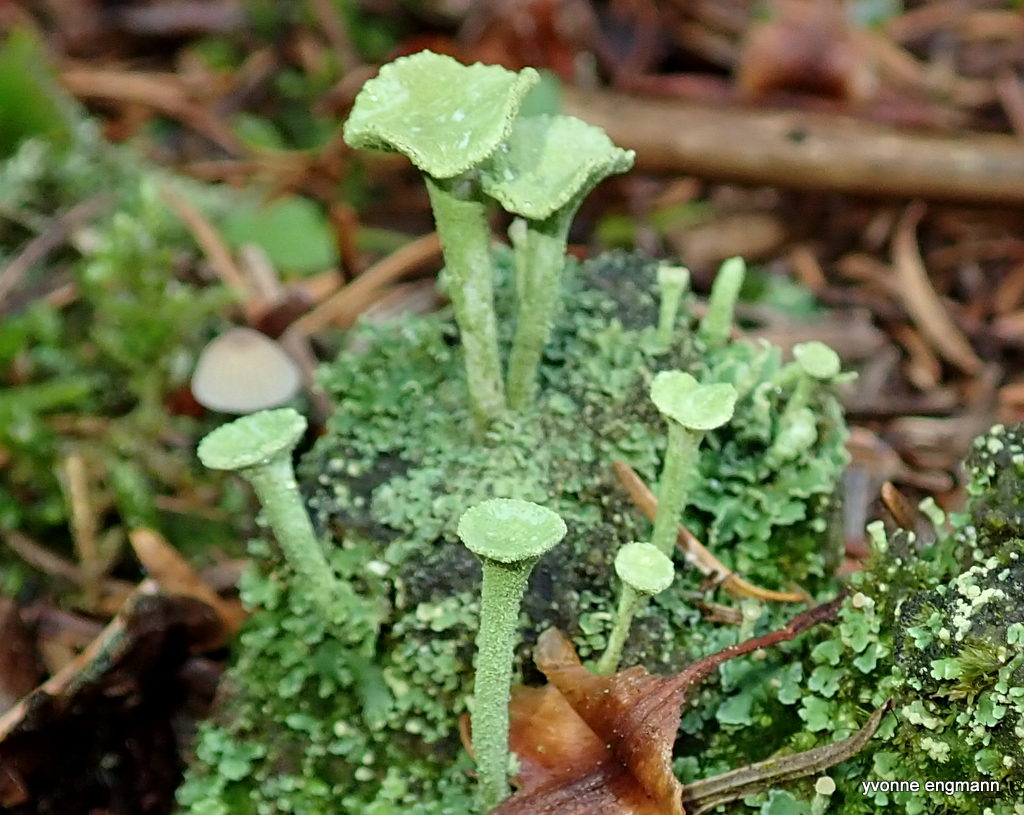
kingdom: Fungi
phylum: Ascomycota
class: Lecanoromycetes
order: Lecanorales
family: Cladoniaceae
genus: Cladonia
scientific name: Cladonia fimbriata
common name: bleggrøn bægerlav
